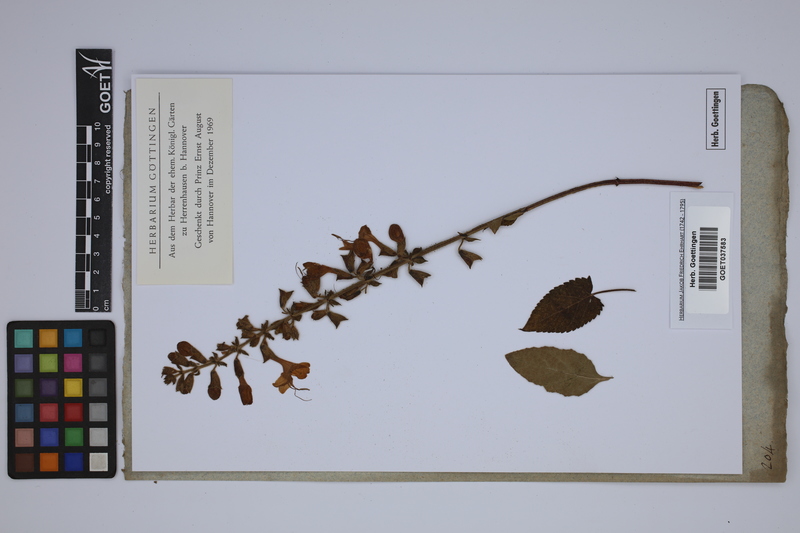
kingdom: Plantae
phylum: Tracheophyta
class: Magnoliopsida
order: Lamiales
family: Lamiaceae
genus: Salvia
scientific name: Salvia
